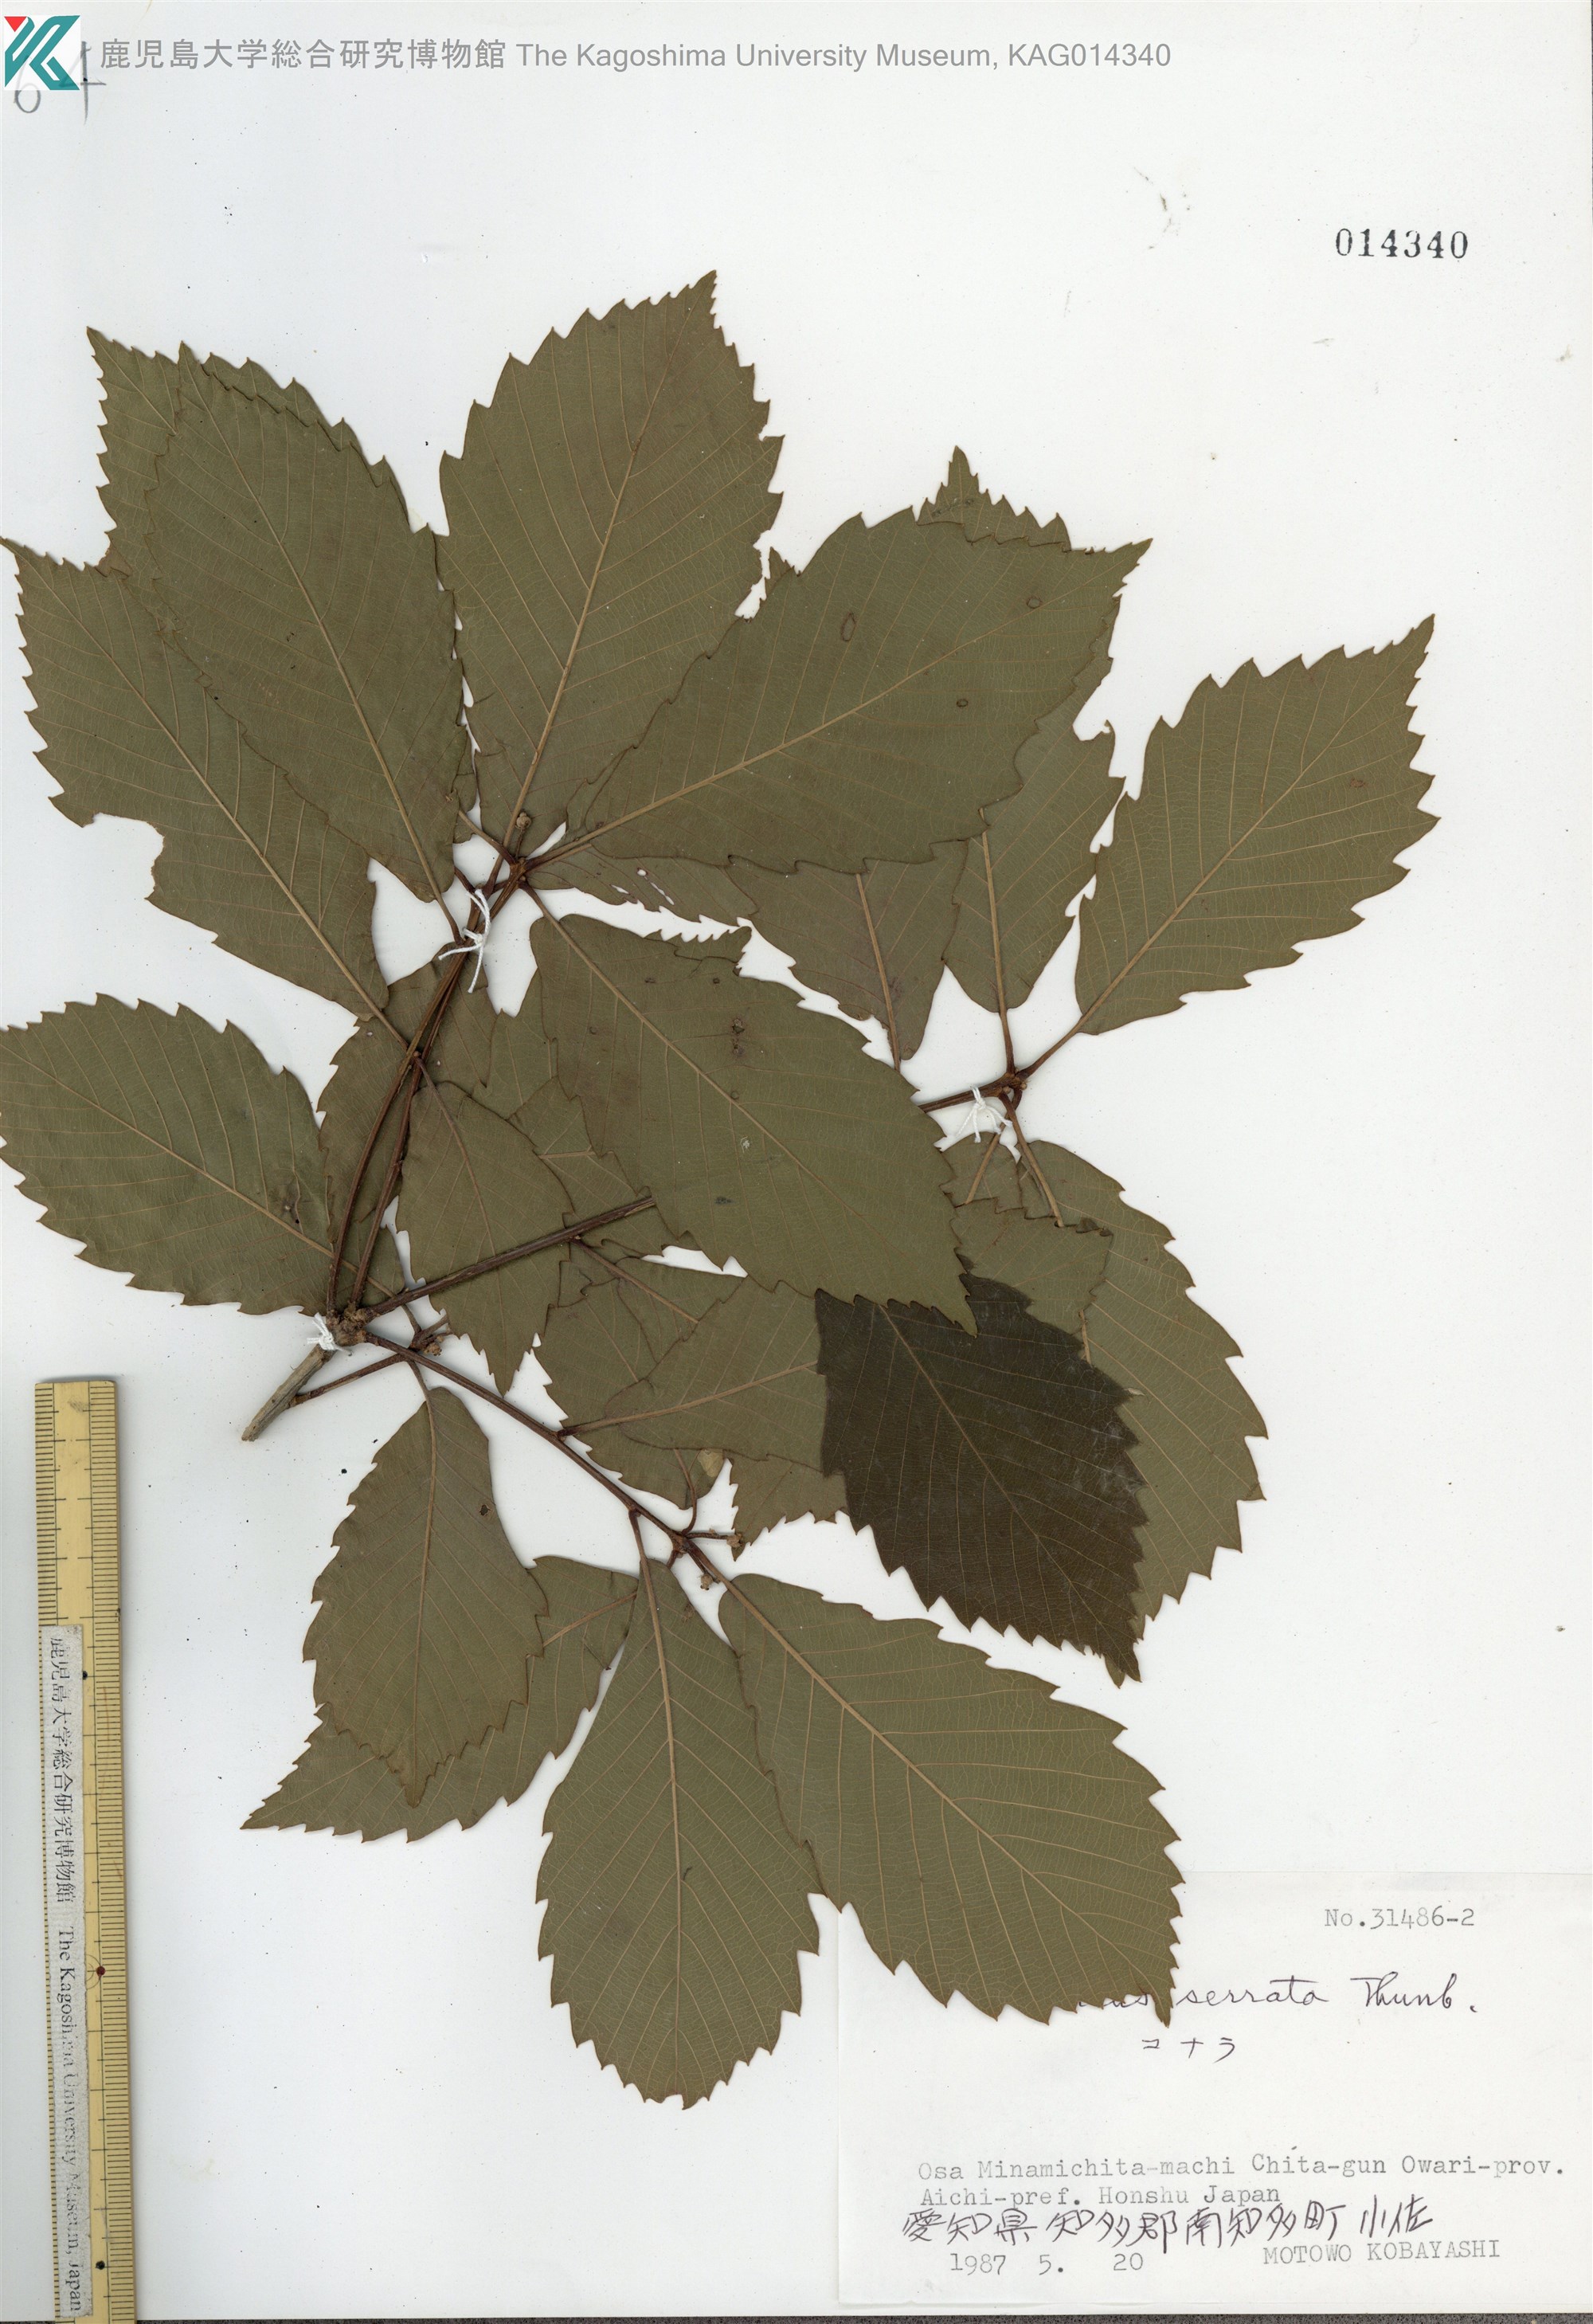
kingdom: Plantae
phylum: Tracheophyta
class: Magnoliopsida
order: Fagales
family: Fagaceae
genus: Quercus
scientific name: Quercus serrata
